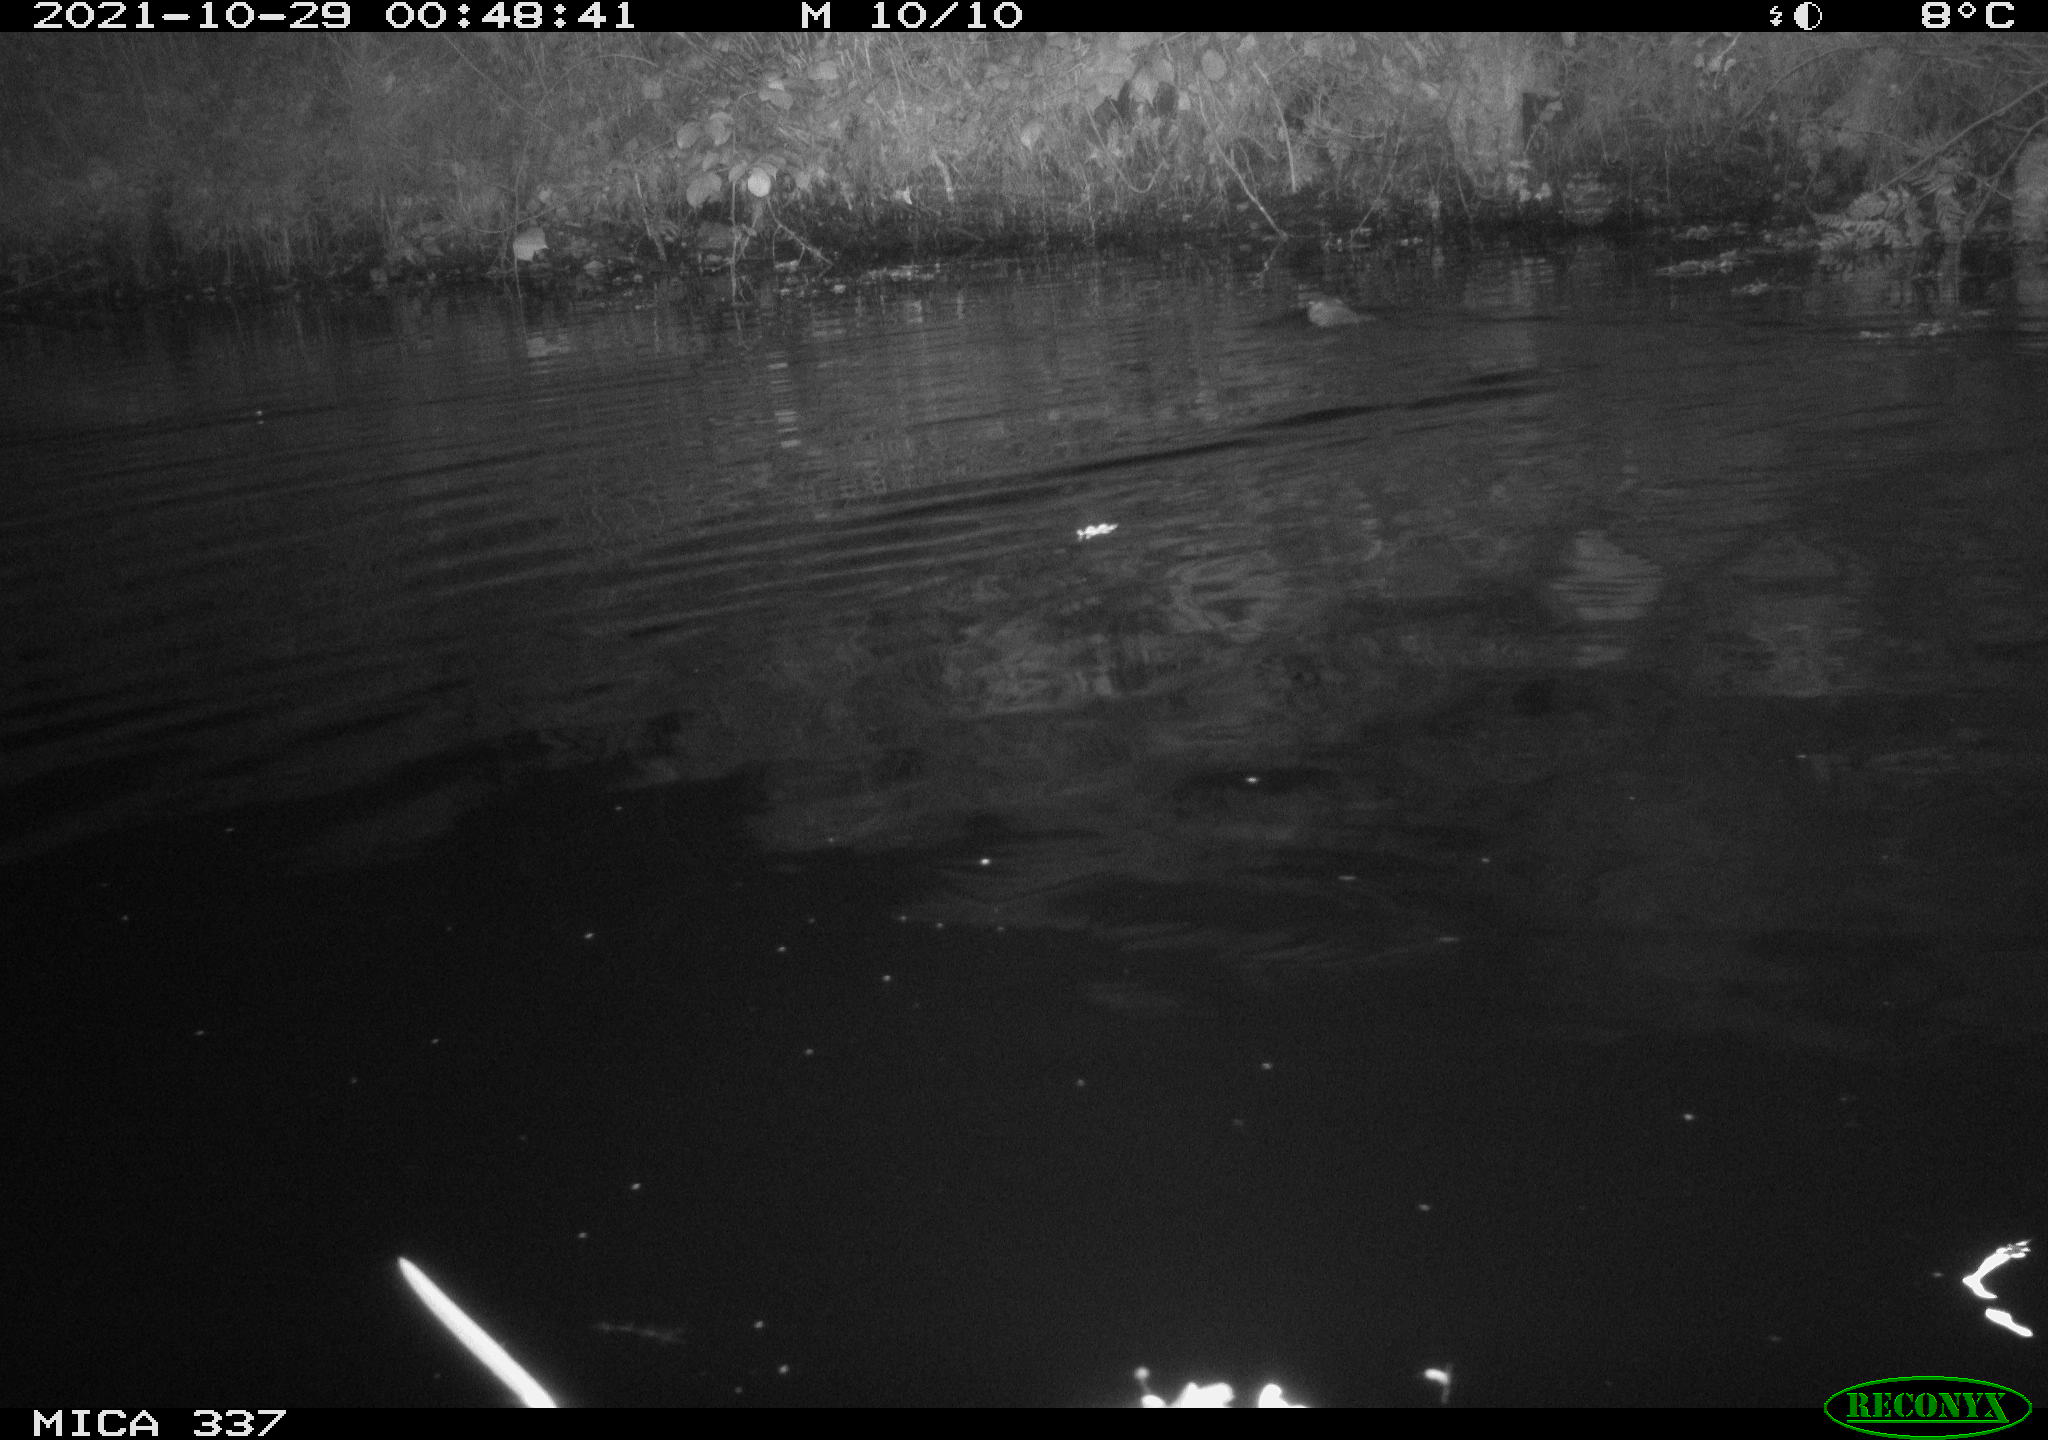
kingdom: Animalia
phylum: Chordata
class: Mammalia
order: Rodentia
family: Muridae
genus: Rattus
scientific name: Rattus norvegicus
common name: Brown rat
